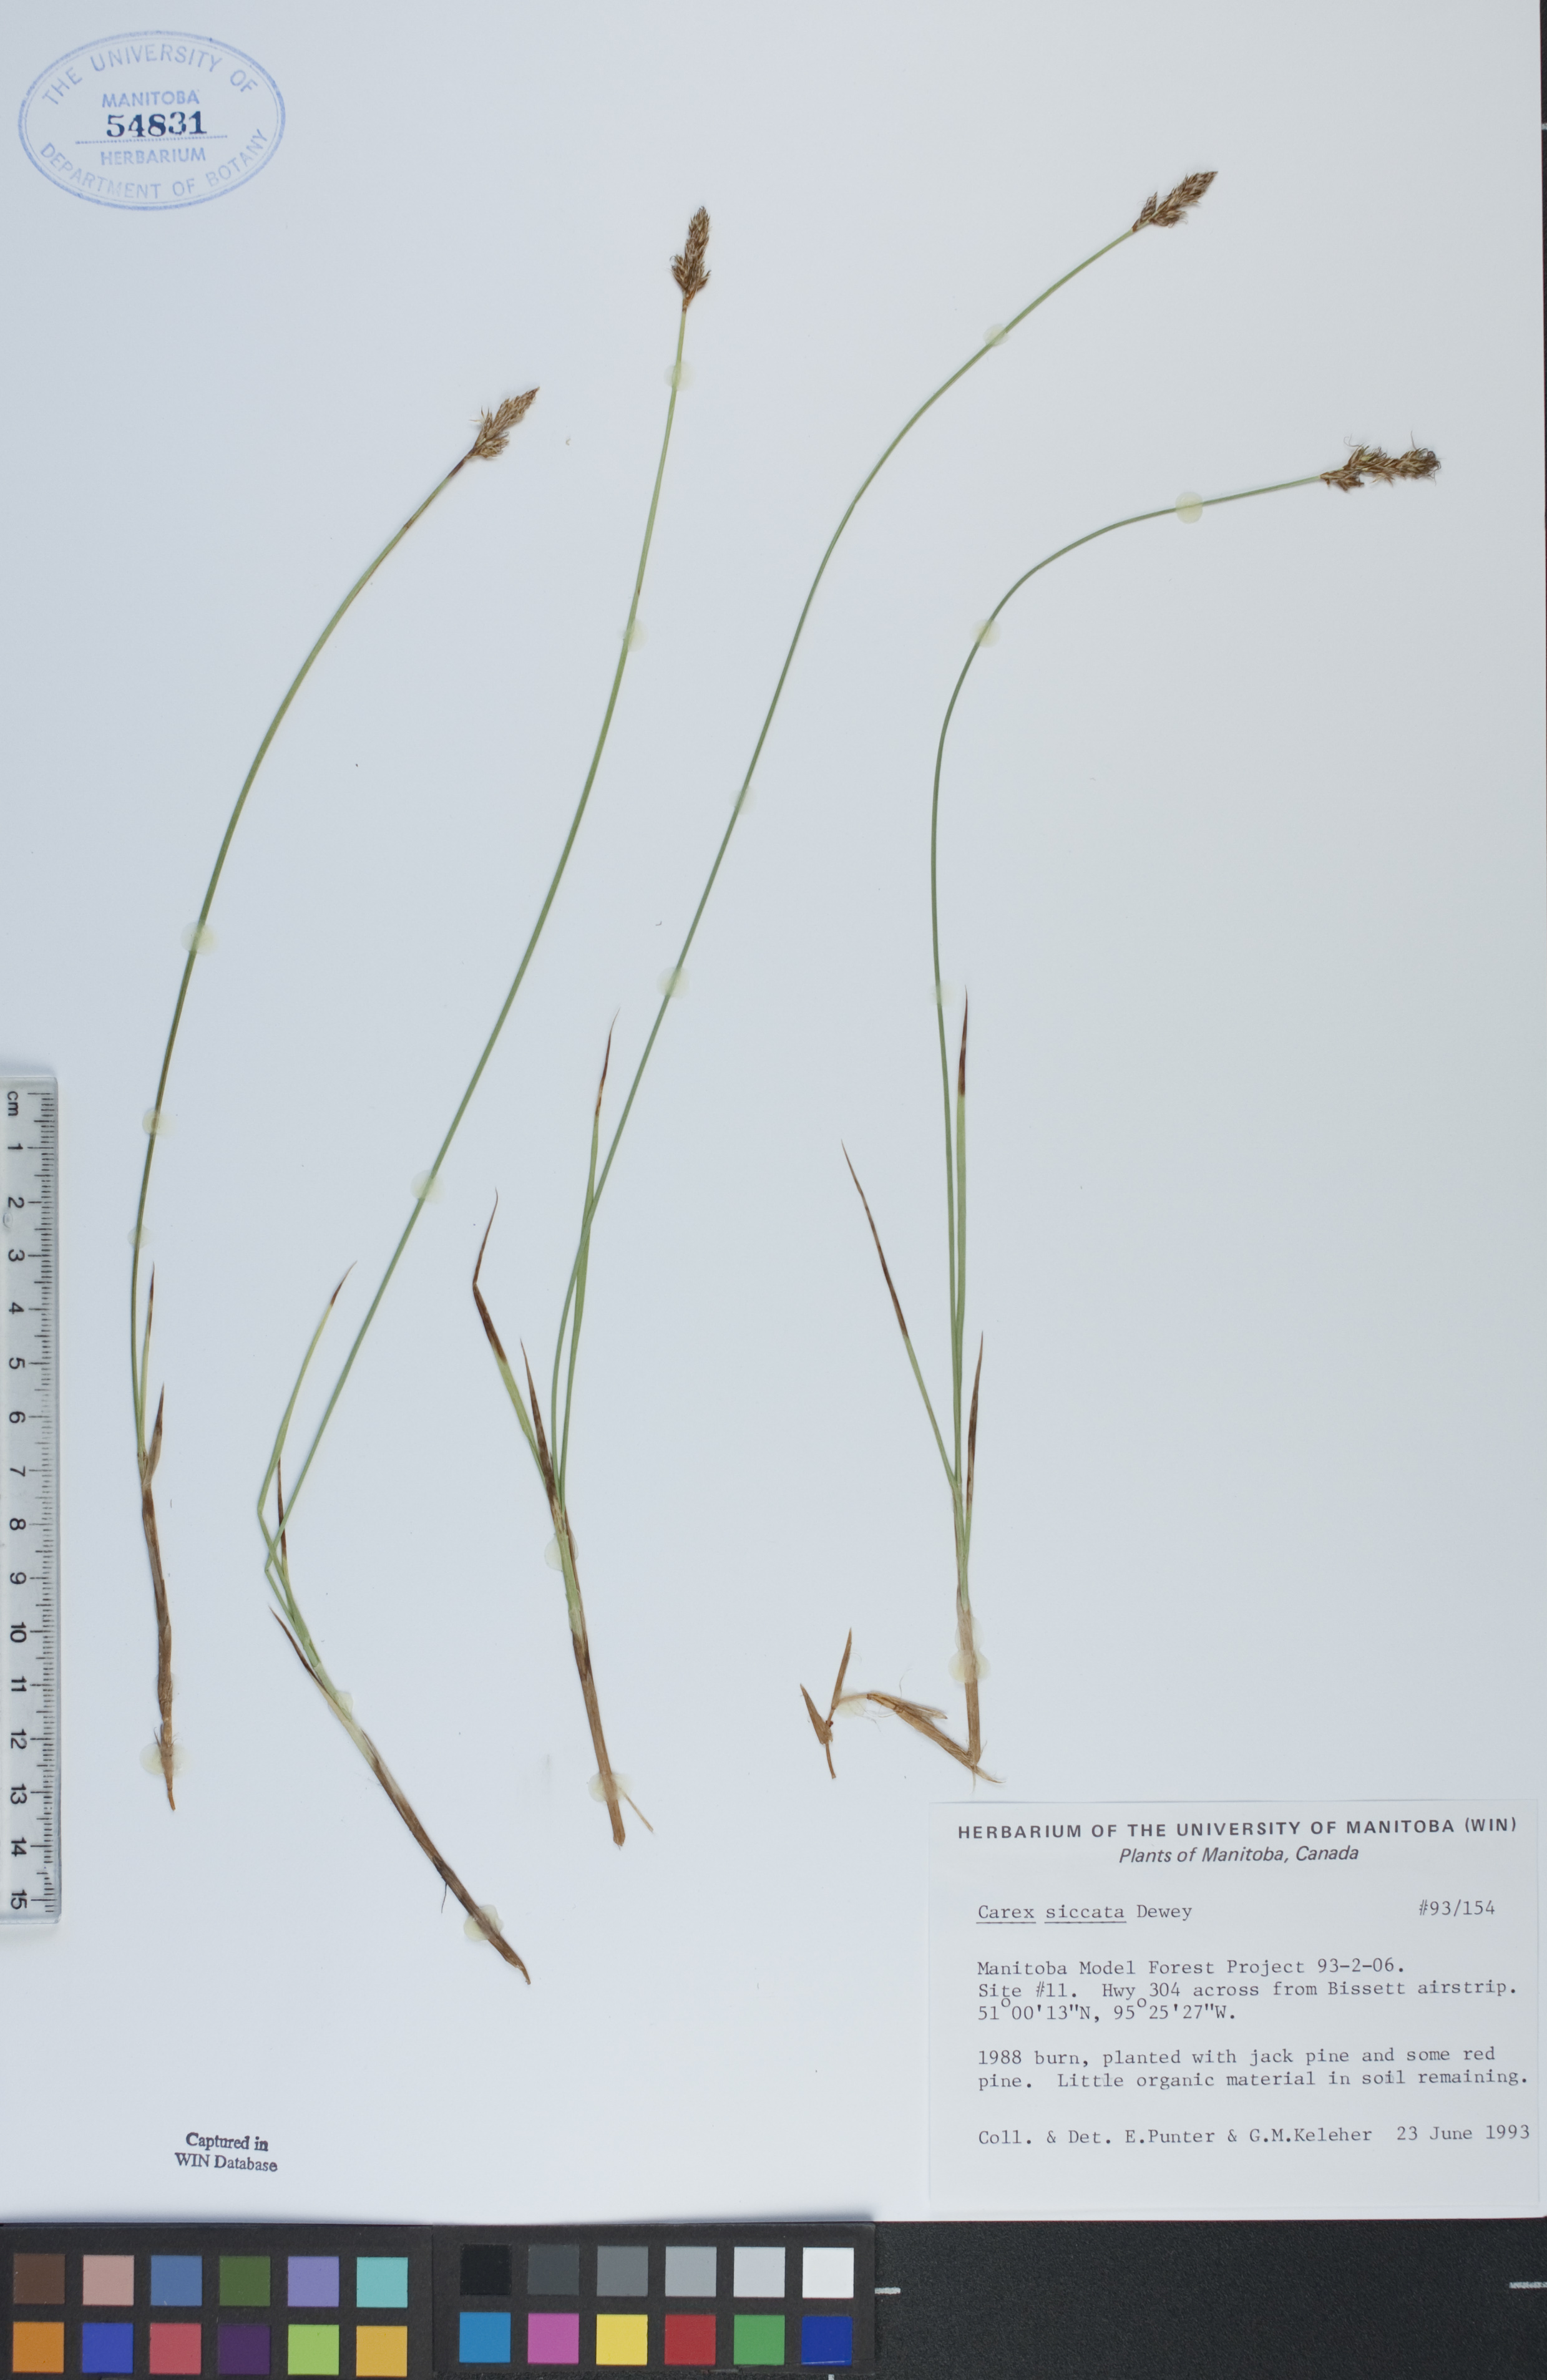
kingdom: Plantae
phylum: Tracheophyta
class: Liliopsida
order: Poales
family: Cyperaceae
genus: Carex
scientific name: Carex siccata
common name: Dry sedge
